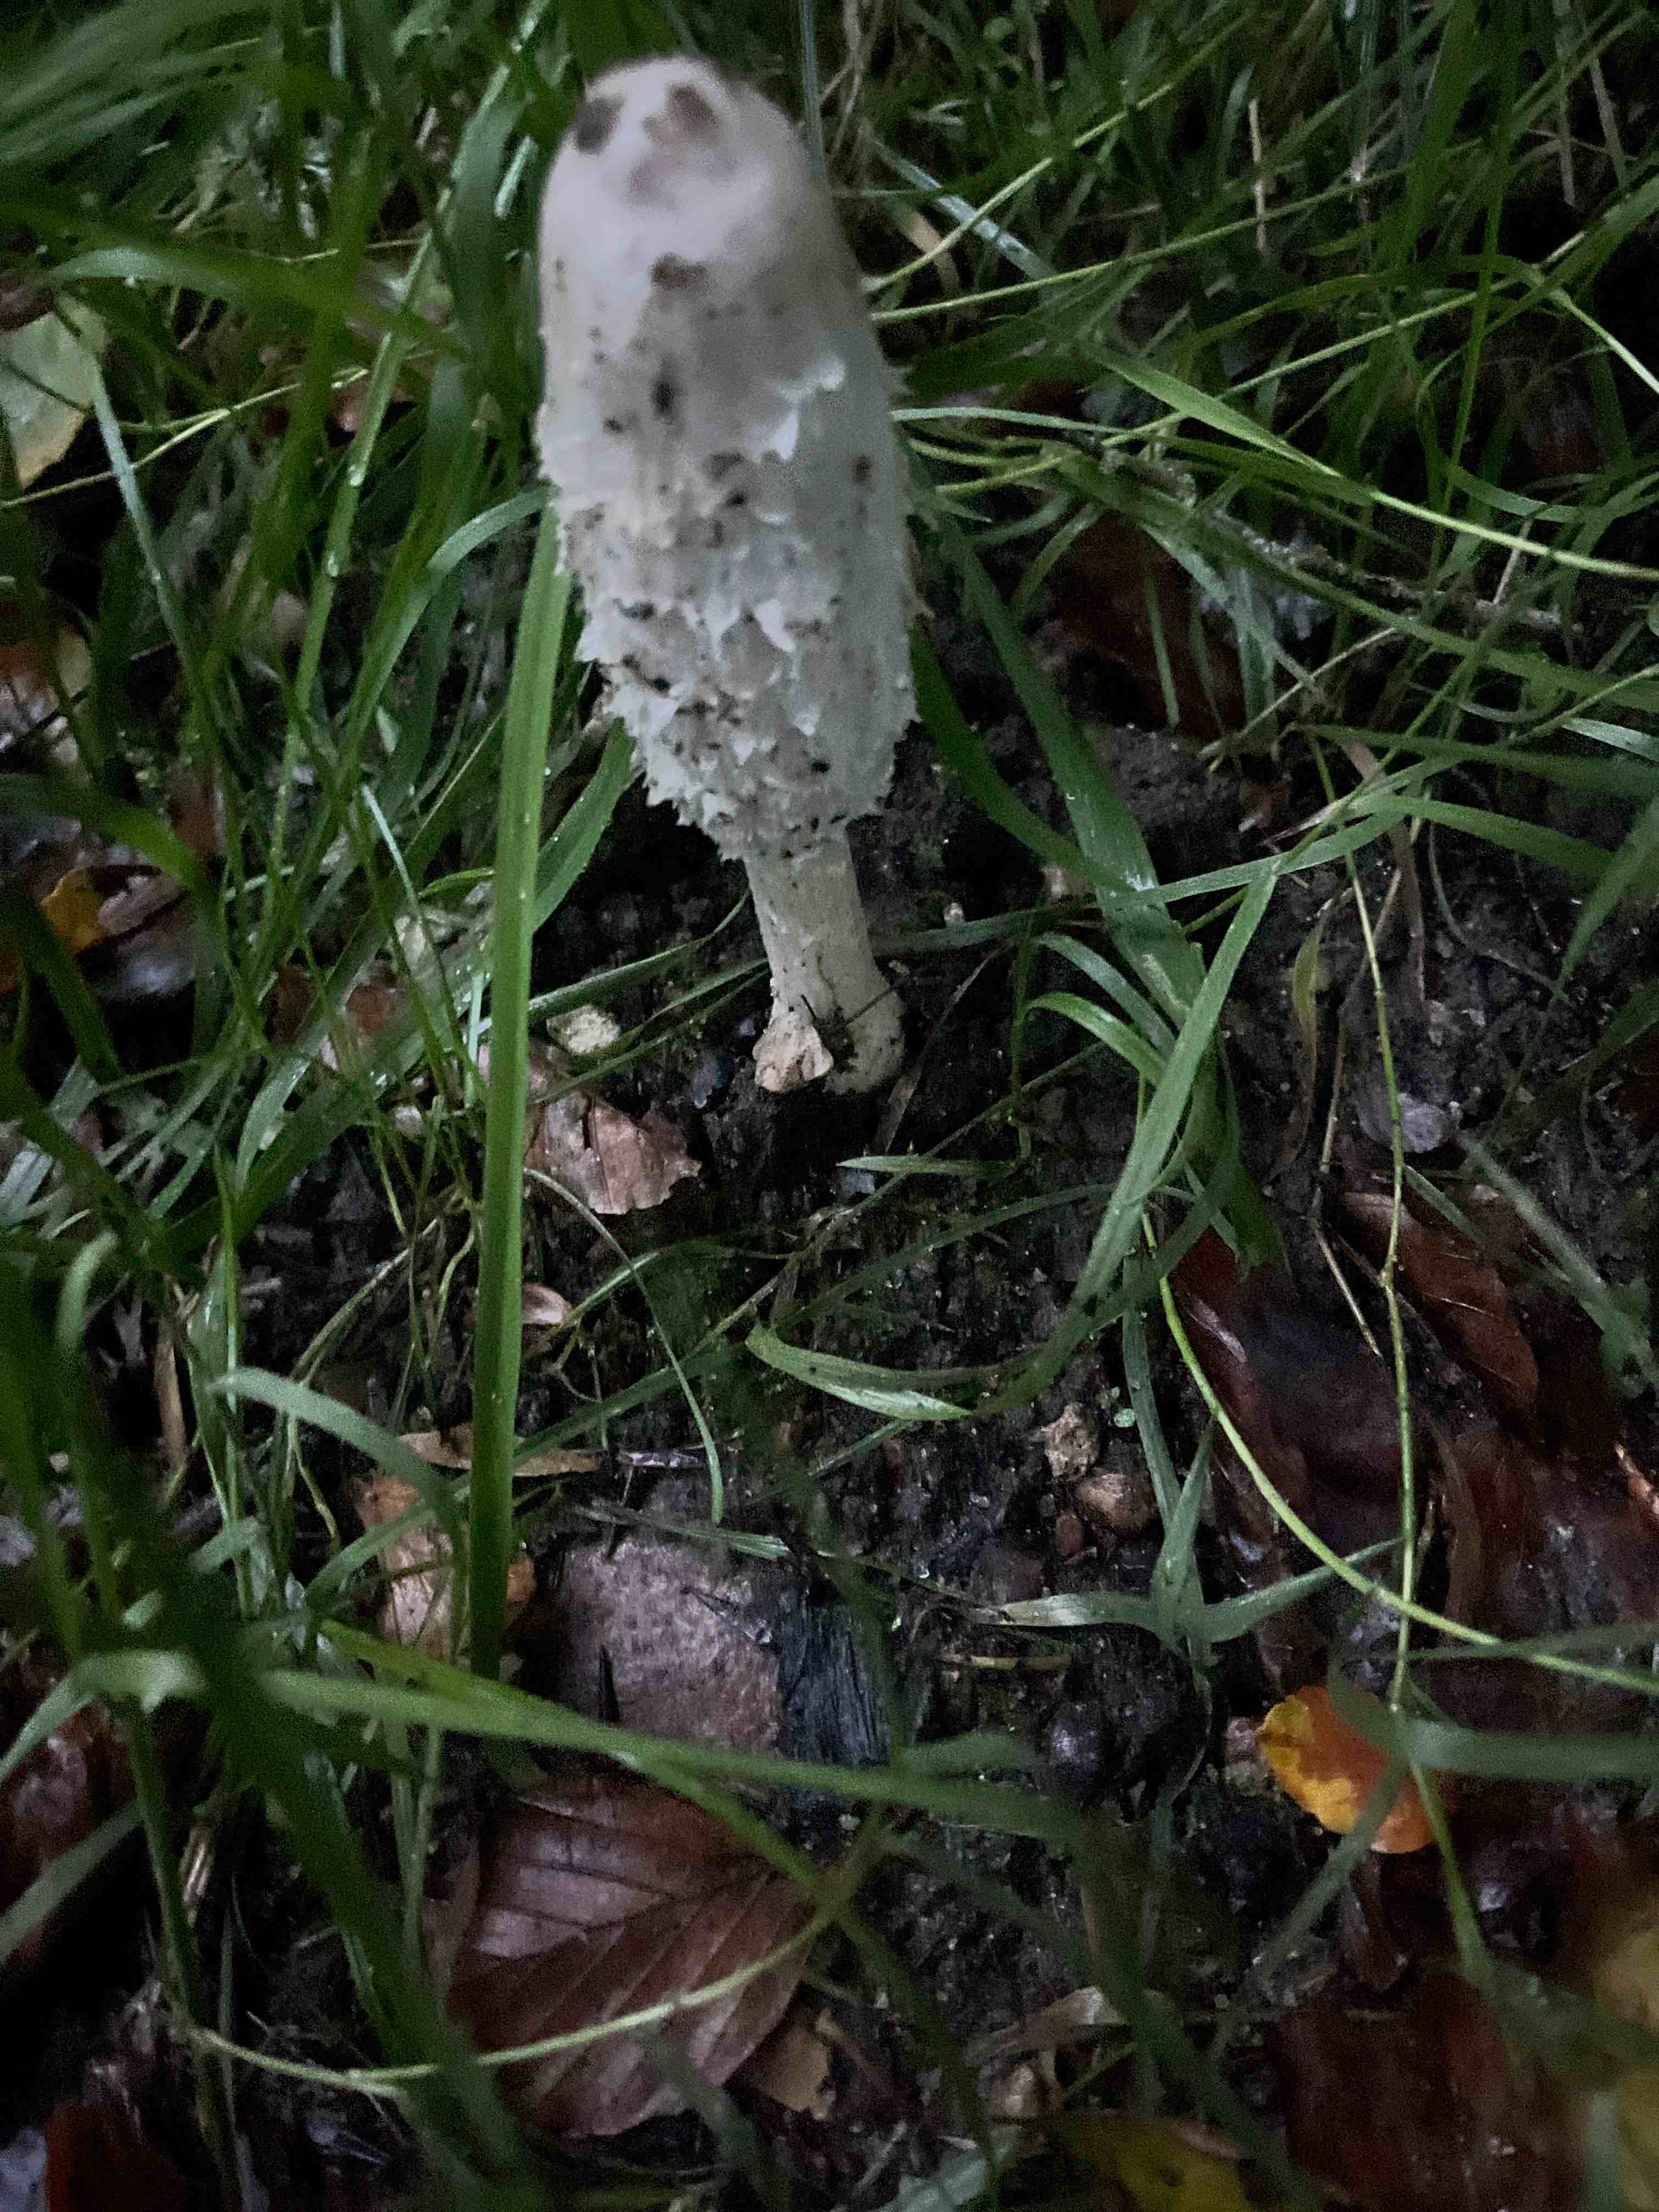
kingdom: Fungi
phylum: Basidiomycota
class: Agaricomycetes
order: Agaricales
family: Agaricaceae
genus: Coprinus
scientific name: Coprinus comatus
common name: stor parykhat
